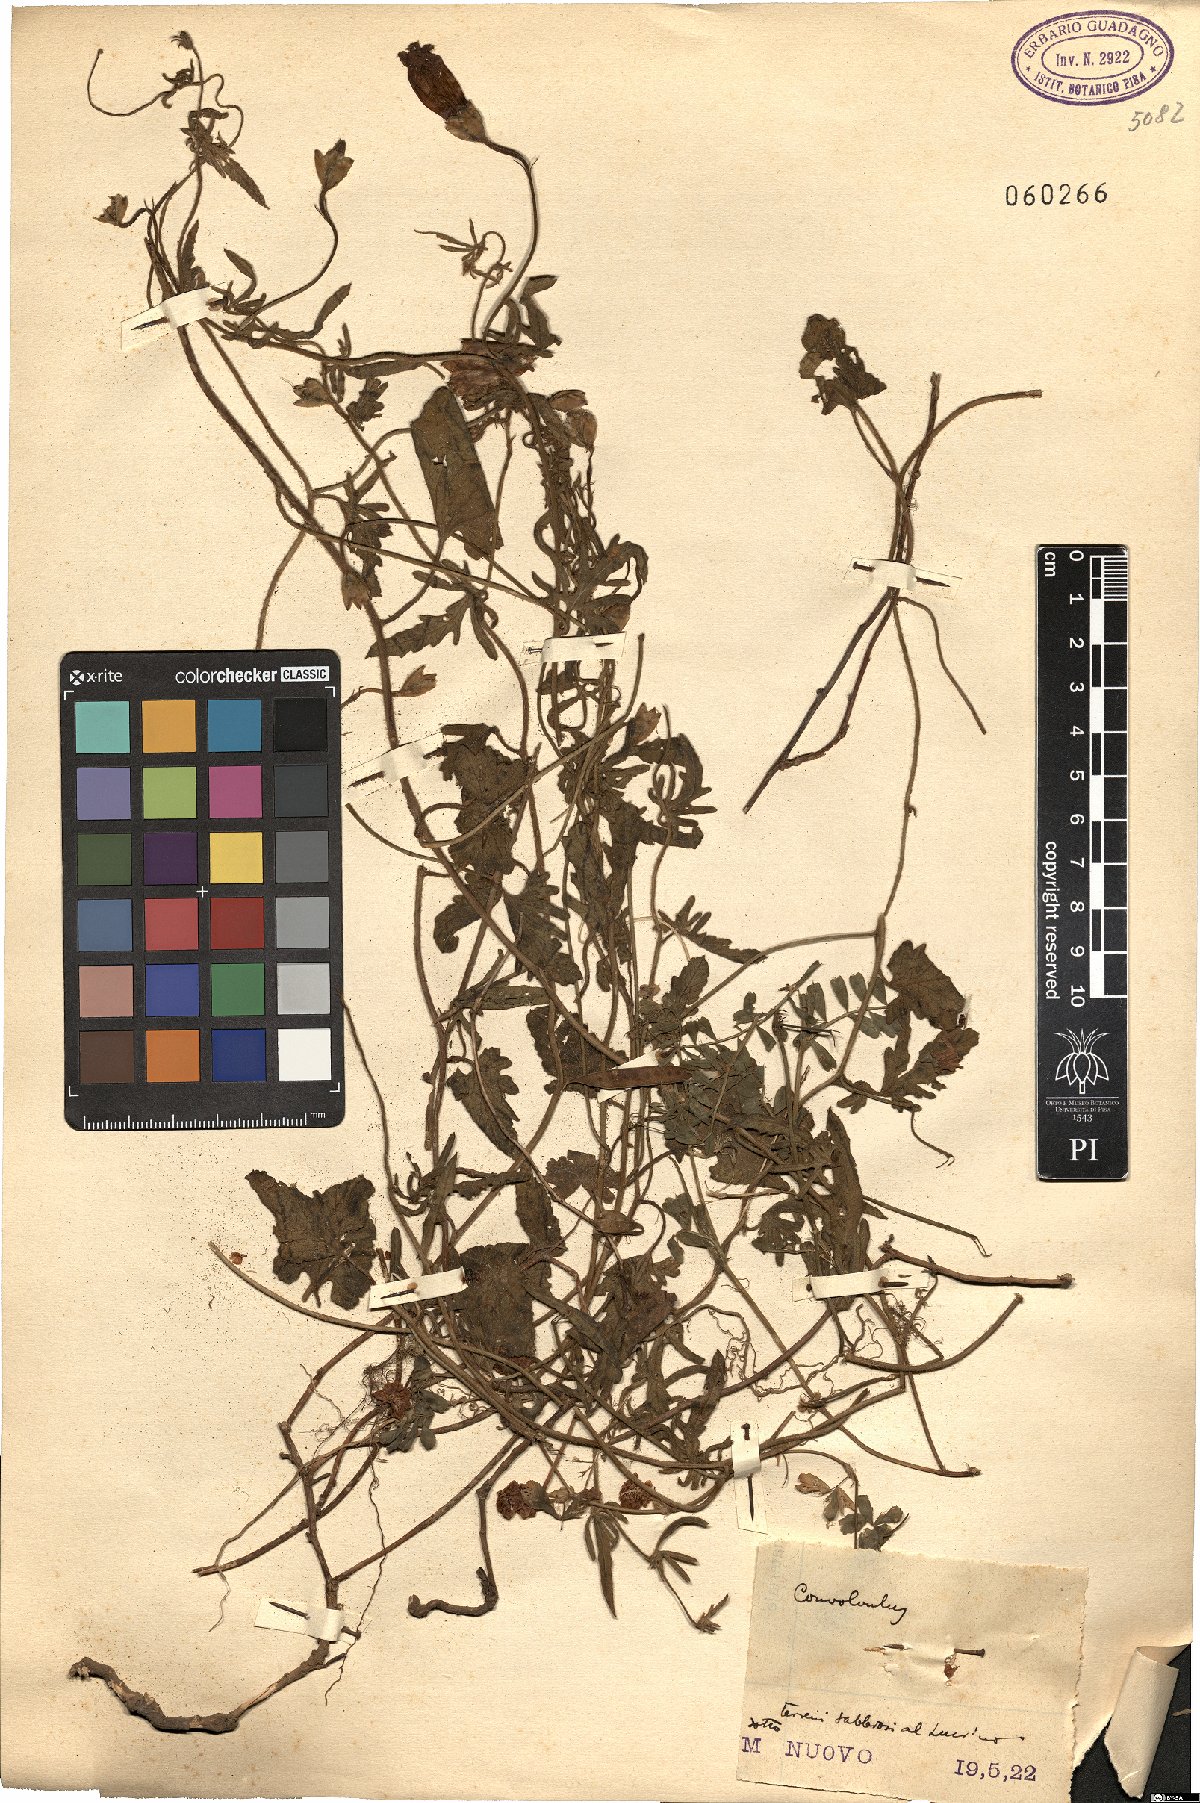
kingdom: Plantae
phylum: Tracheophyta
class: Magnoliopsida
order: Solanales
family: Convolvulaceae
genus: Convolvulus
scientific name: Convolvulus
